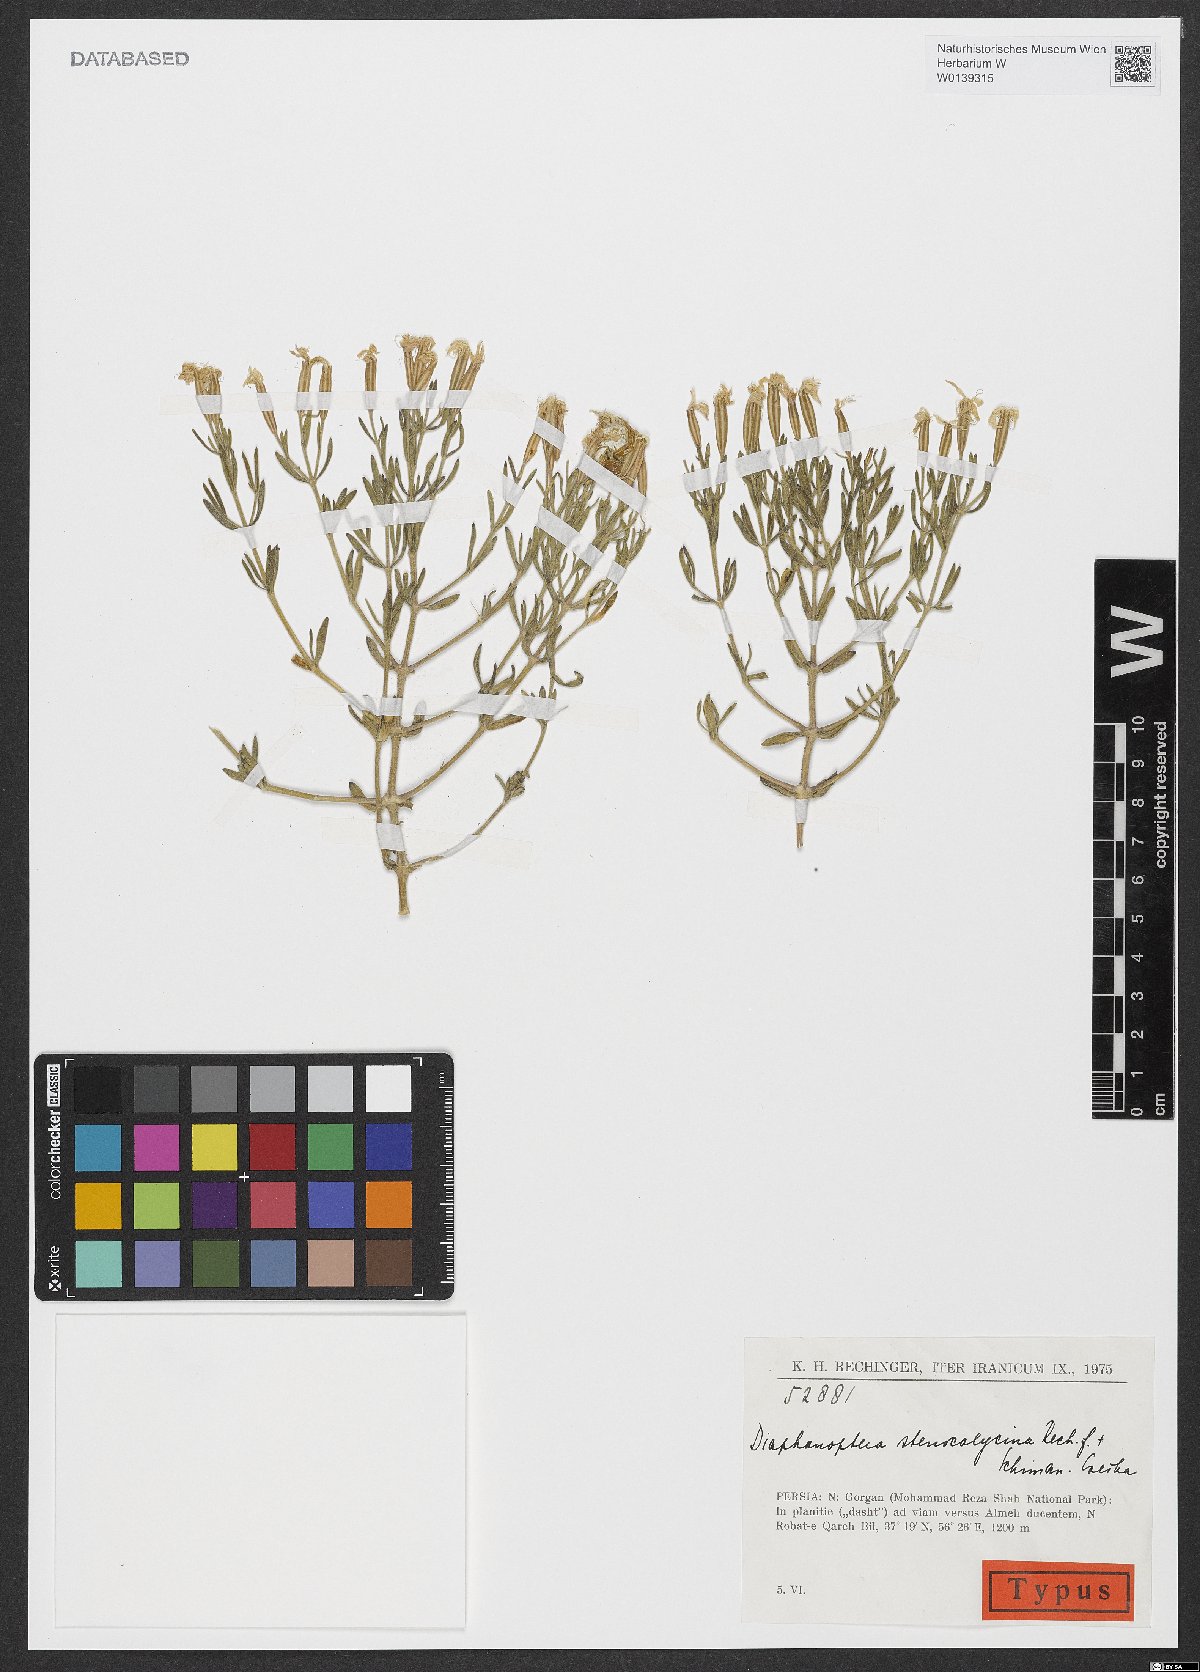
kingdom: Plantae
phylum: Tracheophyta
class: Magnoliopsida
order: Caryophyllales
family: Caryophyllaceae
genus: Acanthophyllum
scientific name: Acanthophyllum stenocalycinum
